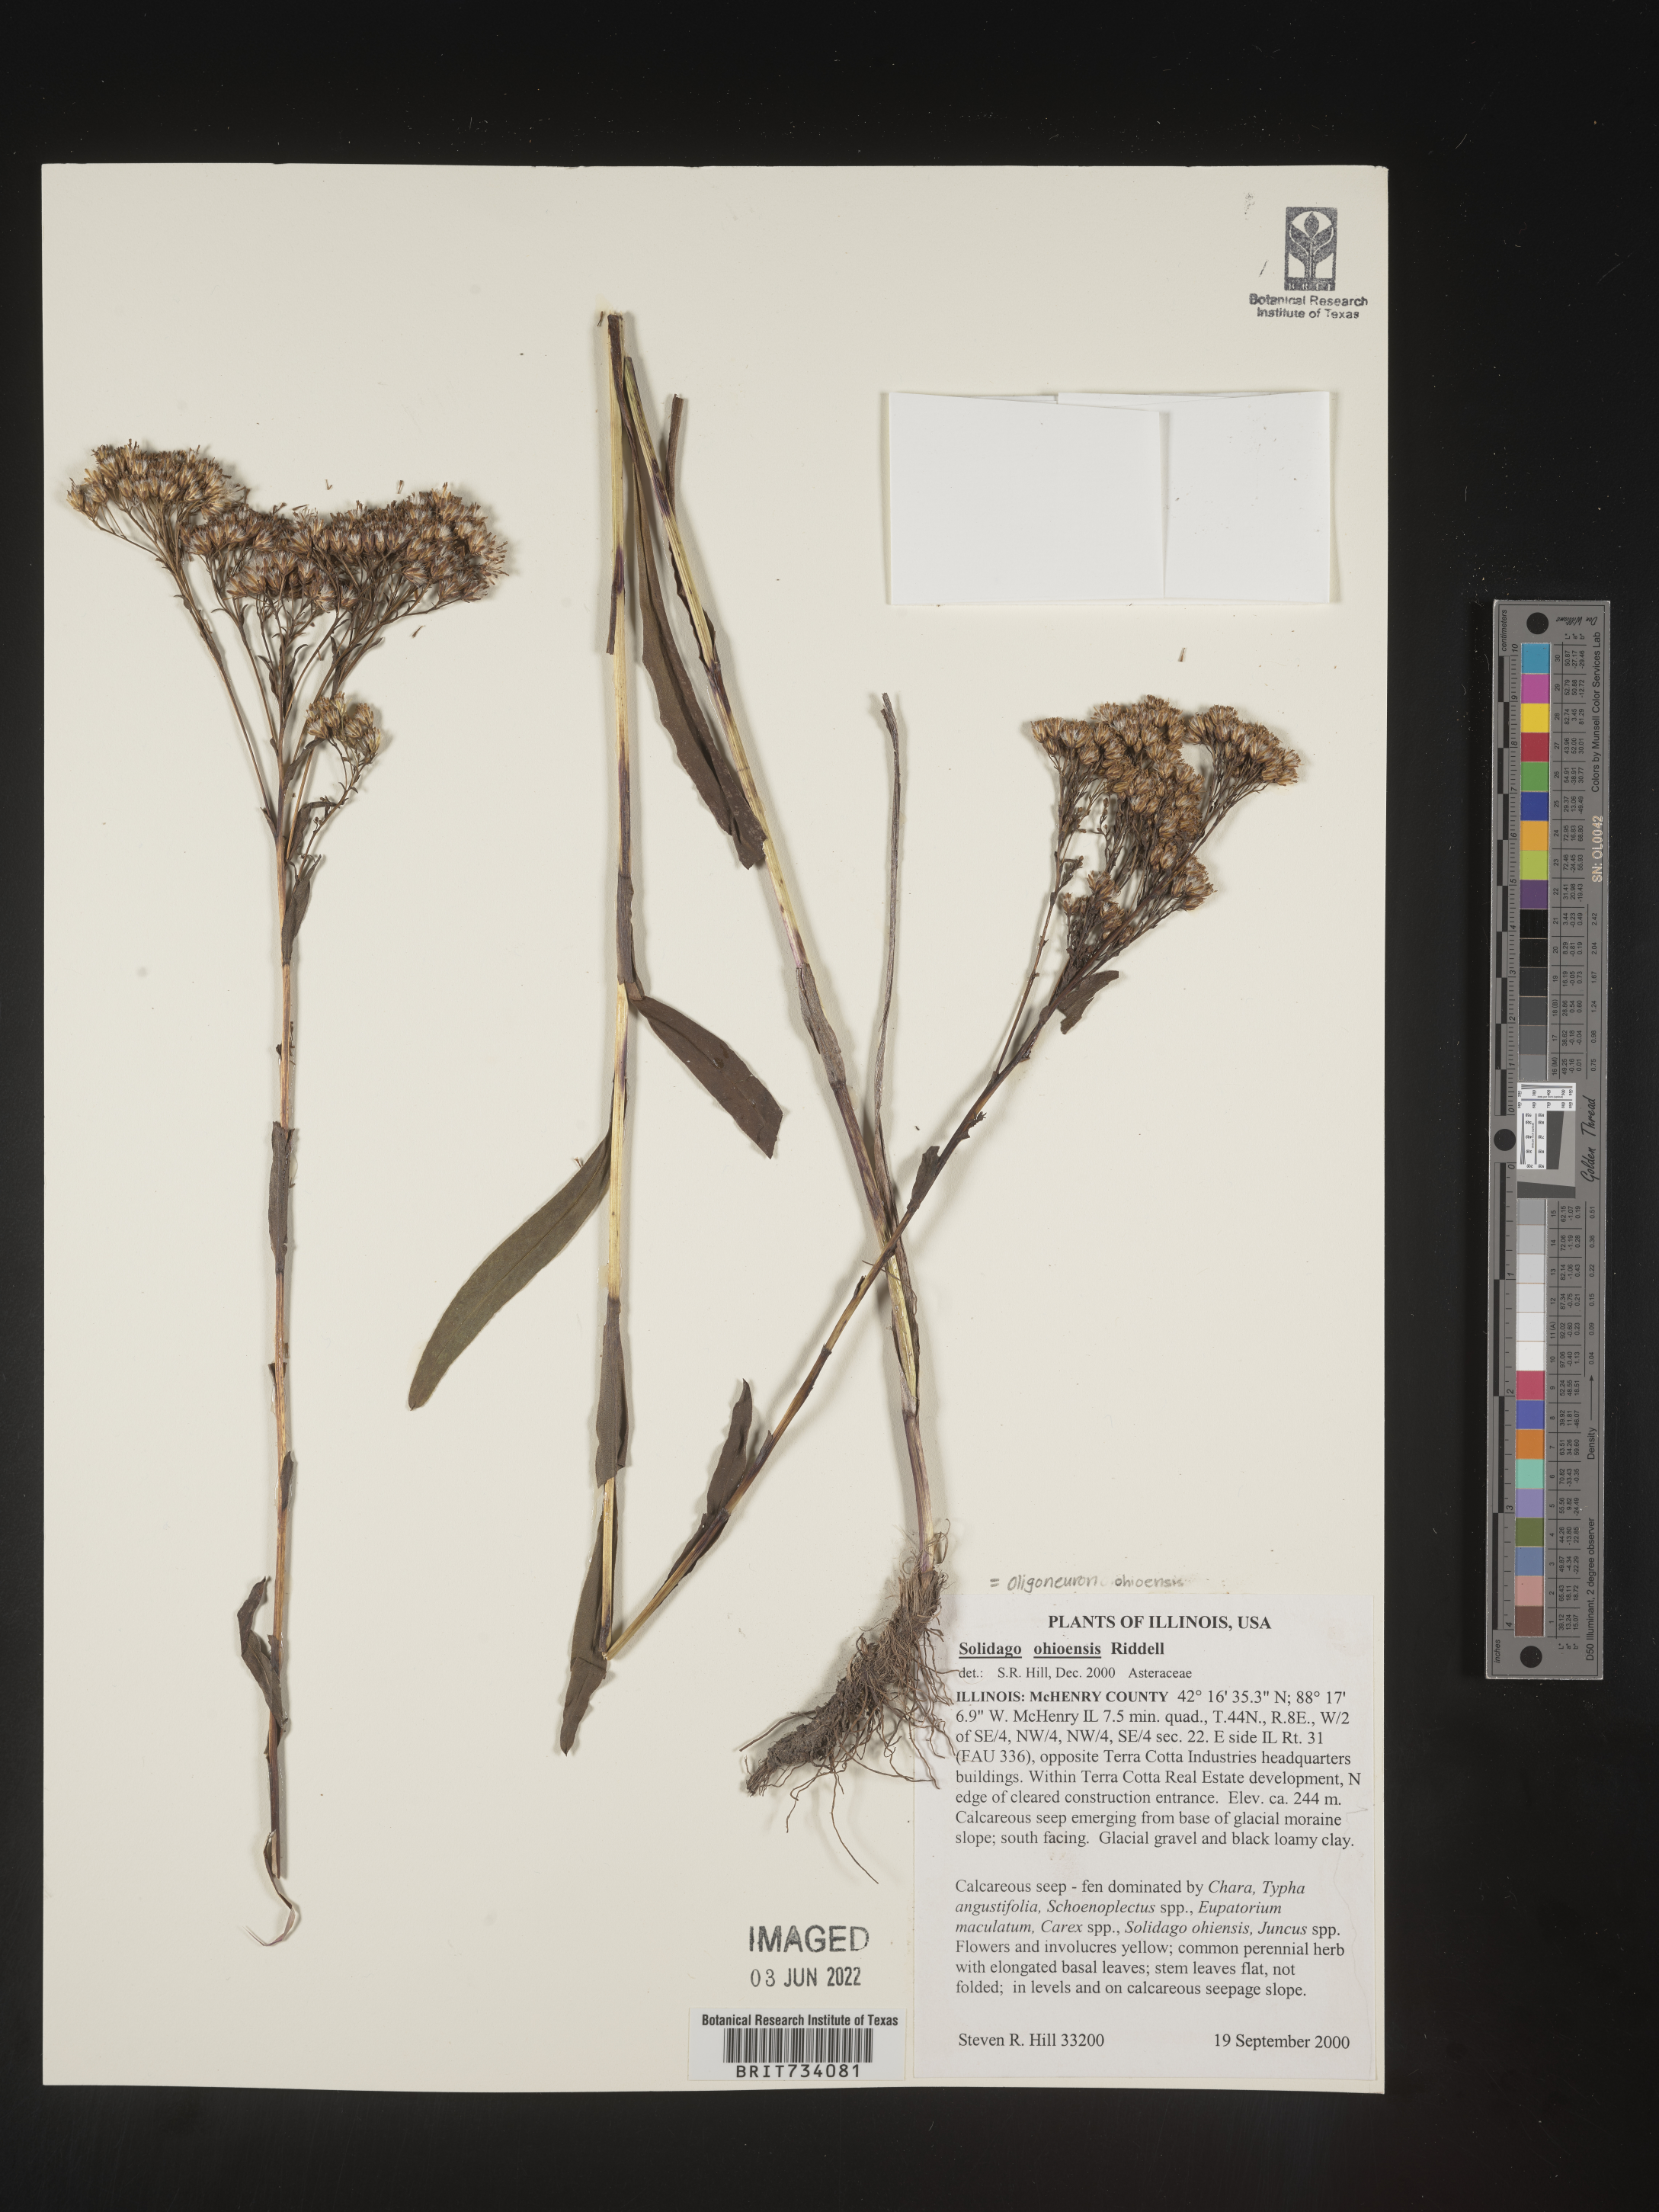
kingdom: Plantae
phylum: Tracheophyta
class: Magnoliopsida
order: Asterales
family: Asteraceae
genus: Solidago
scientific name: Solidago nitida
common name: Shiny goldenrod
